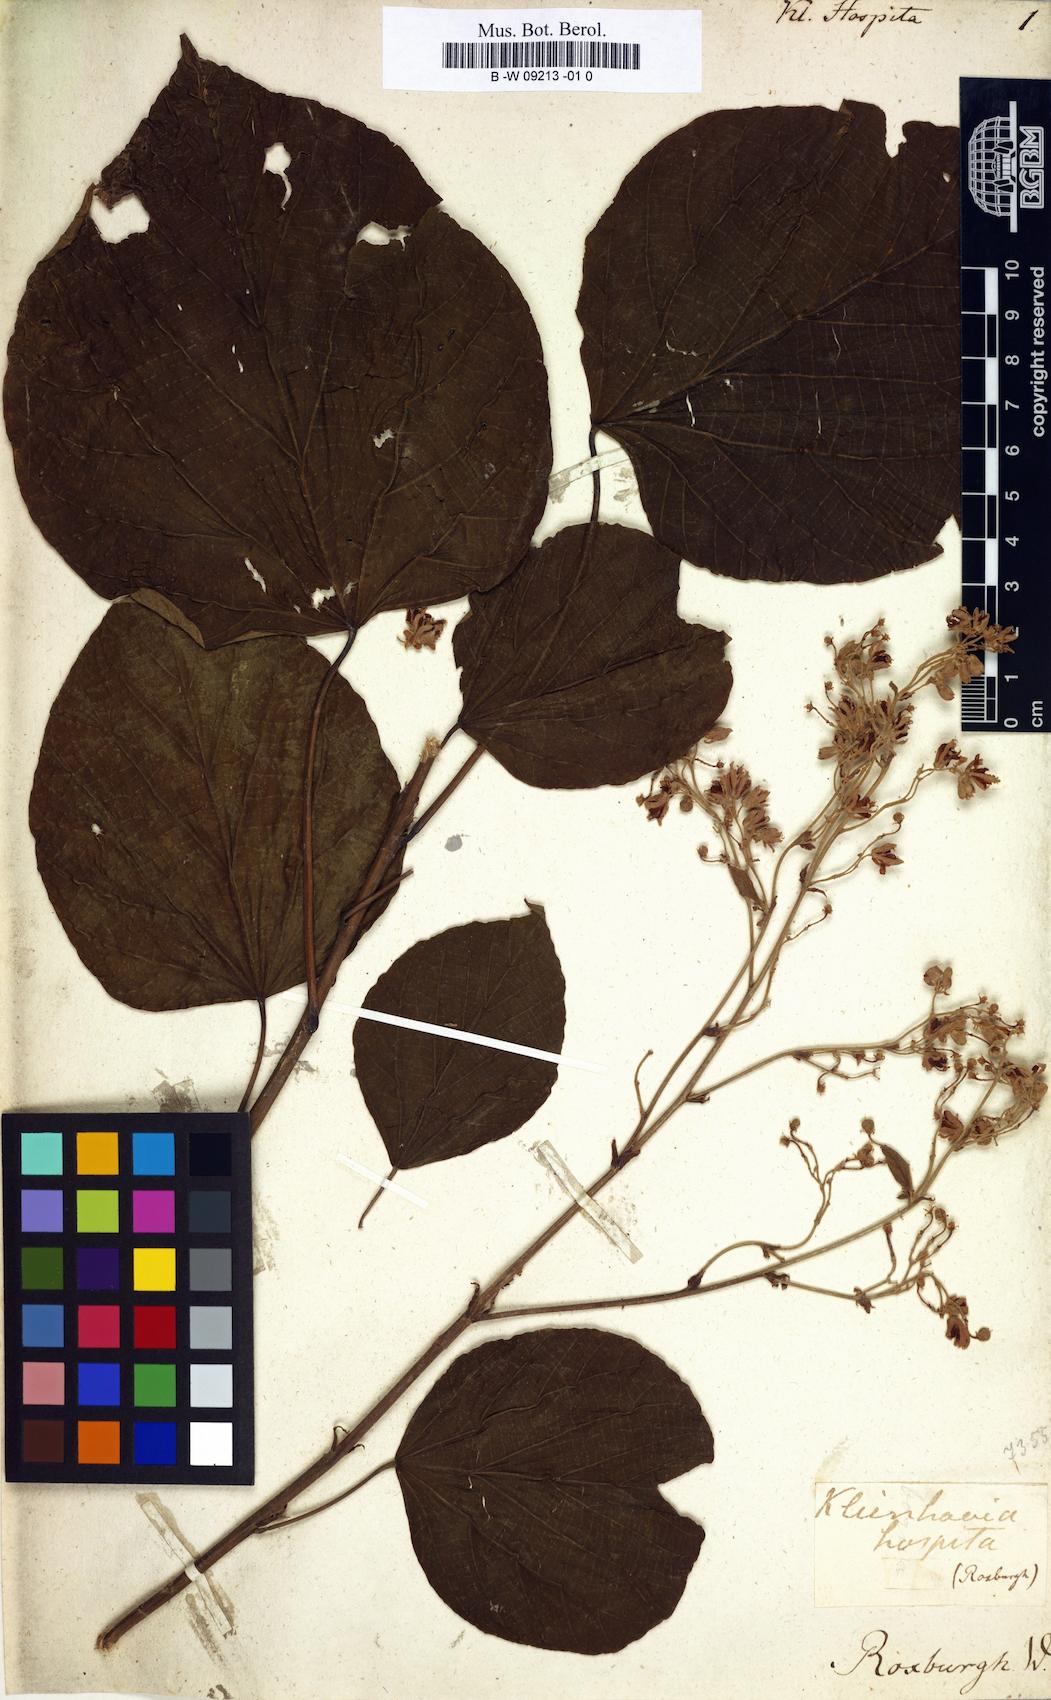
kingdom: Plantae
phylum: Tracheophyta
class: Magnoliopsida
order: Malvales
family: Malvaceae
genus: Kleinhovia
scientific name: Kleinhovia hospita
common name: Guest-tree
